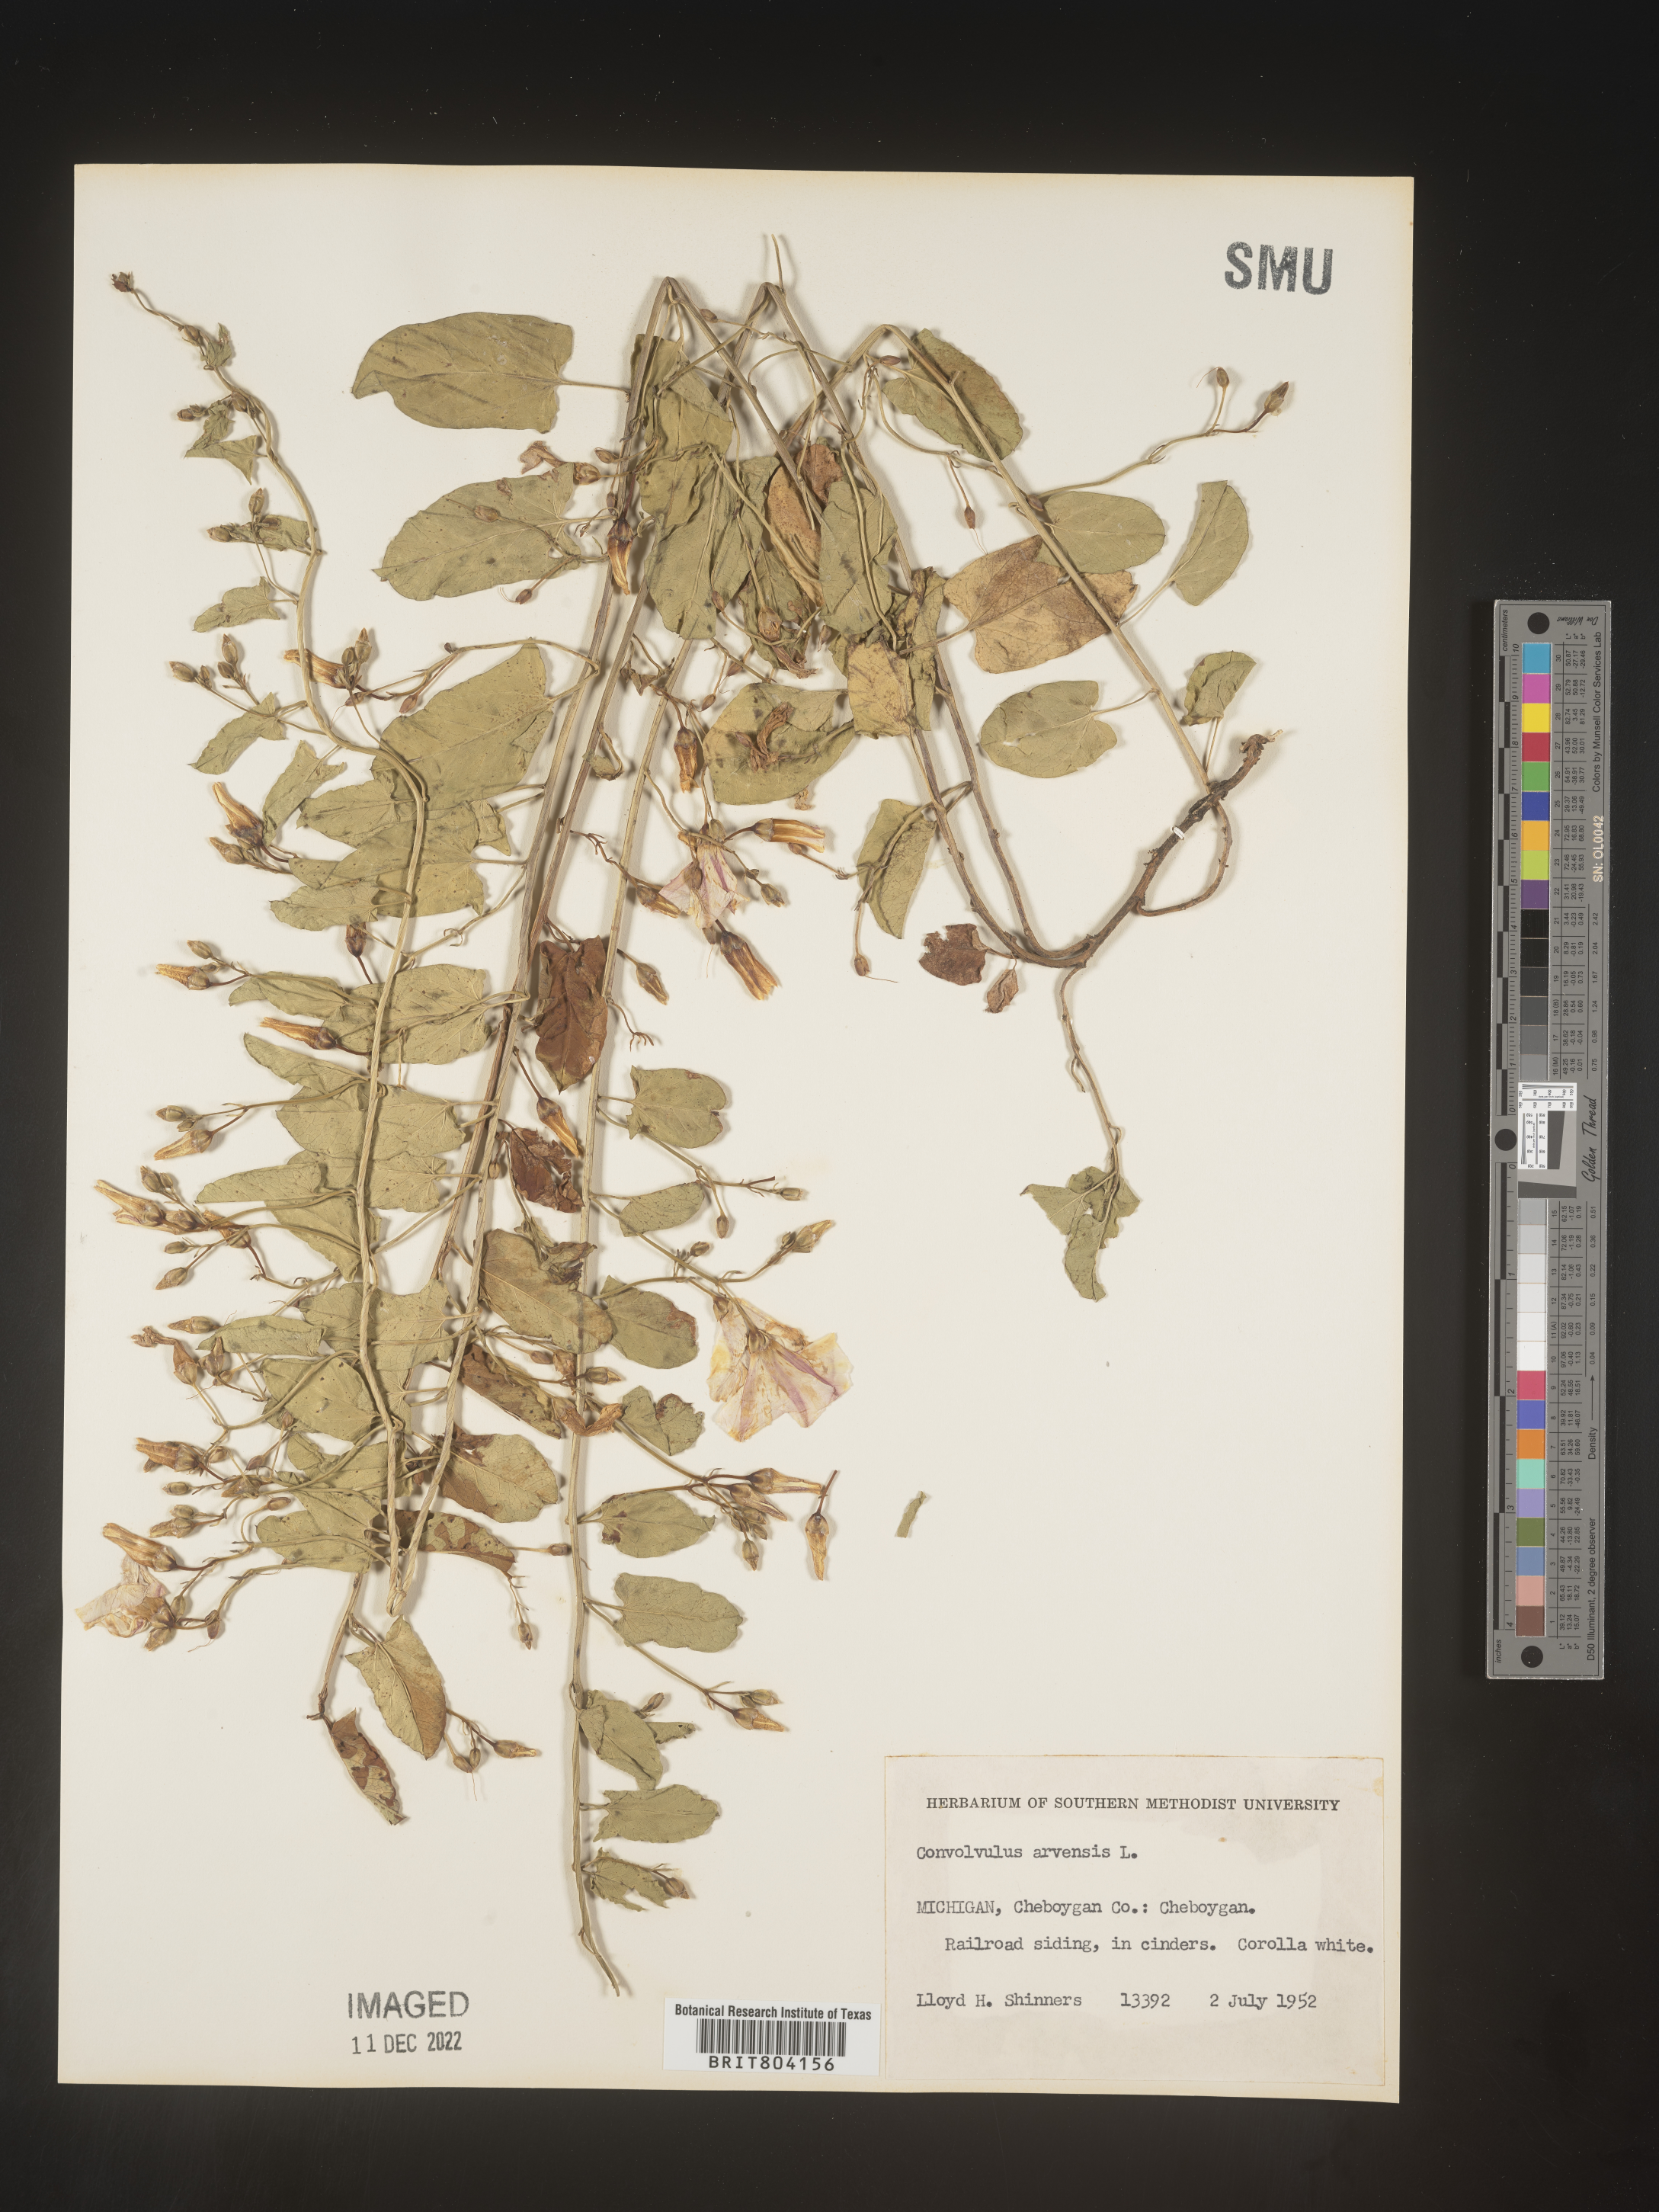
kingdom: Plantae
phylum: Tracheophyta
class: Magnoliopsida
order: Solanales
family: Convolvulaceae
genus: Convolvulus
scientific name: Convolvulus arvensis
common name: Field bindweed
